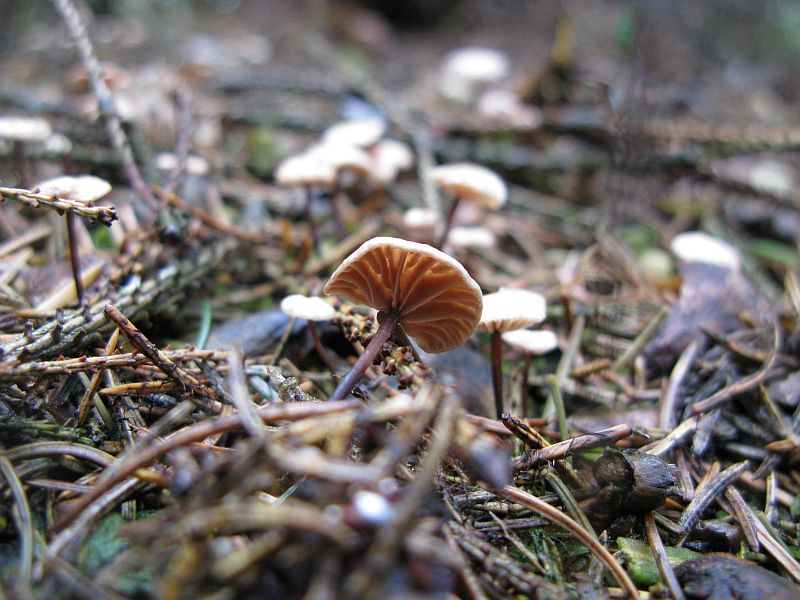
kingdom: Fungi
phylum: Basidiomycota
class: Agaricomycetes
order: Agaricales
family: Omphalotaceae
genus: Paragymnopus
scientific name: Paragymnopus perforans
